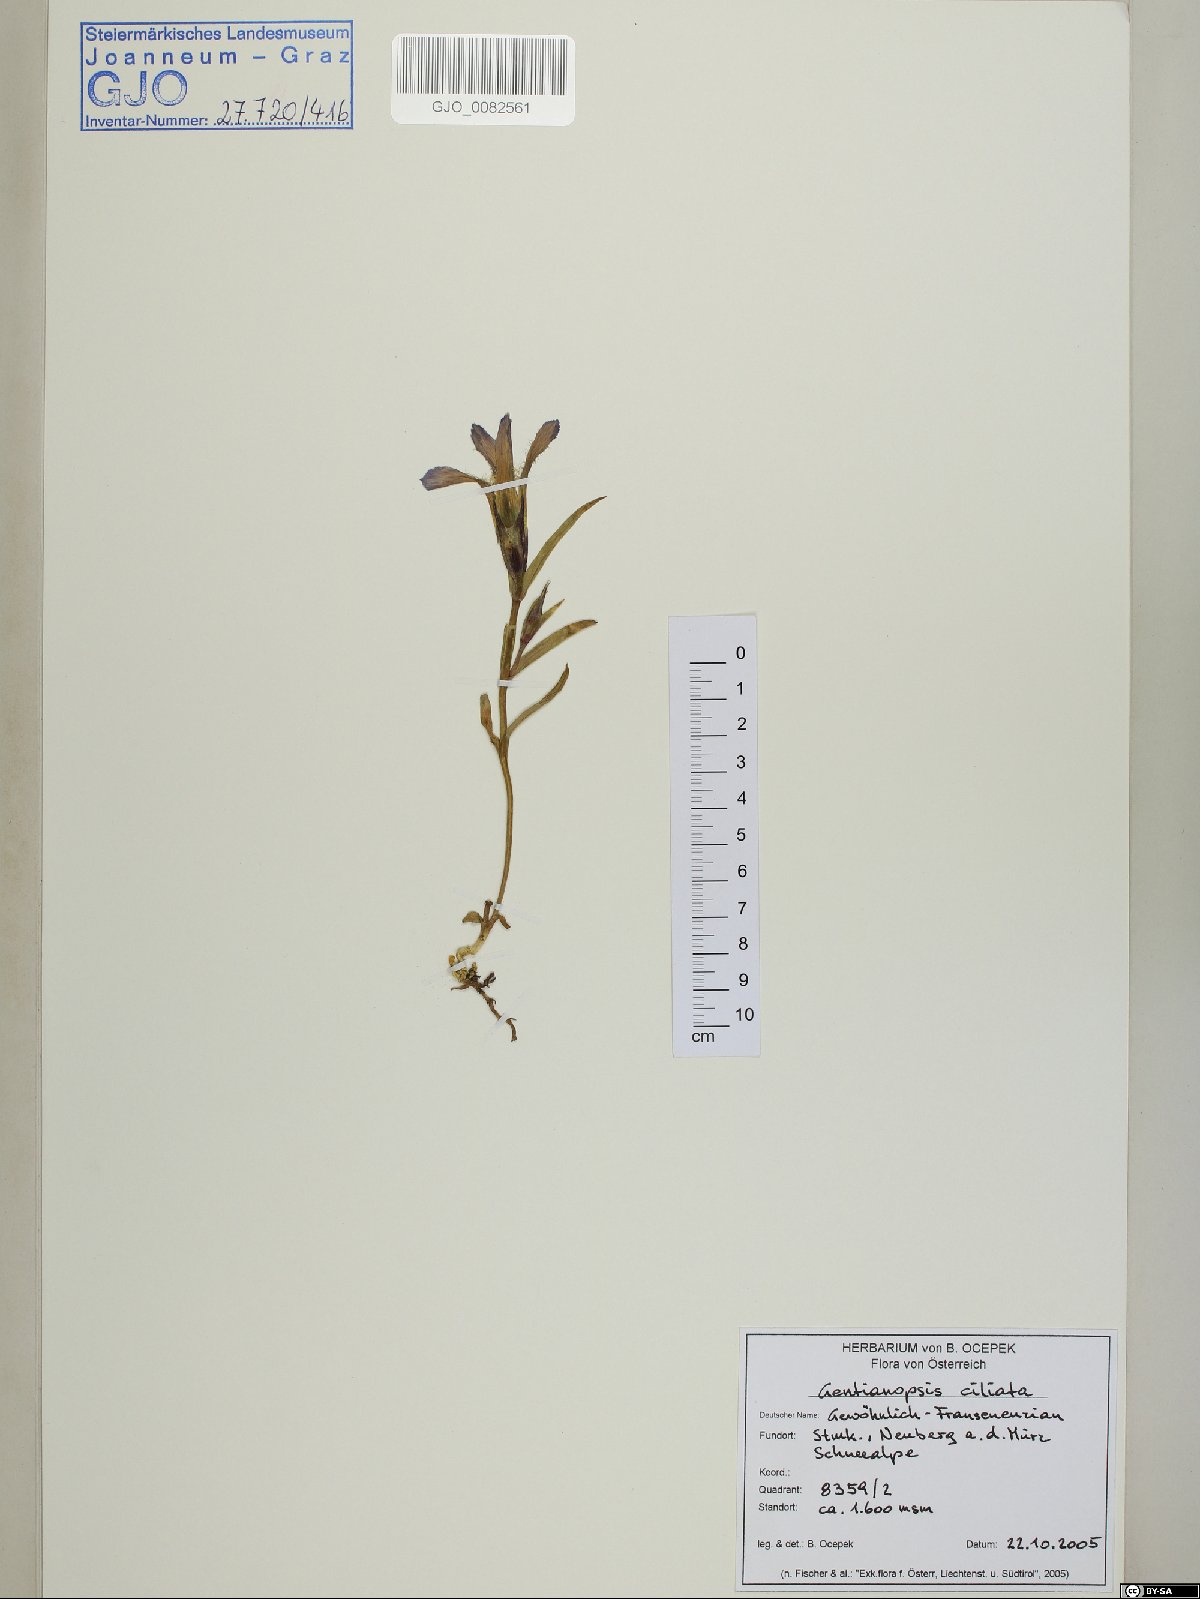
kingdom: Plantae
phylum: Tracheophyta
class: Magnoliopsida
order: Gentianales
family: Gentianaceae
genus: Gentianopsis
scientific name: Gentianopsis ciliata
